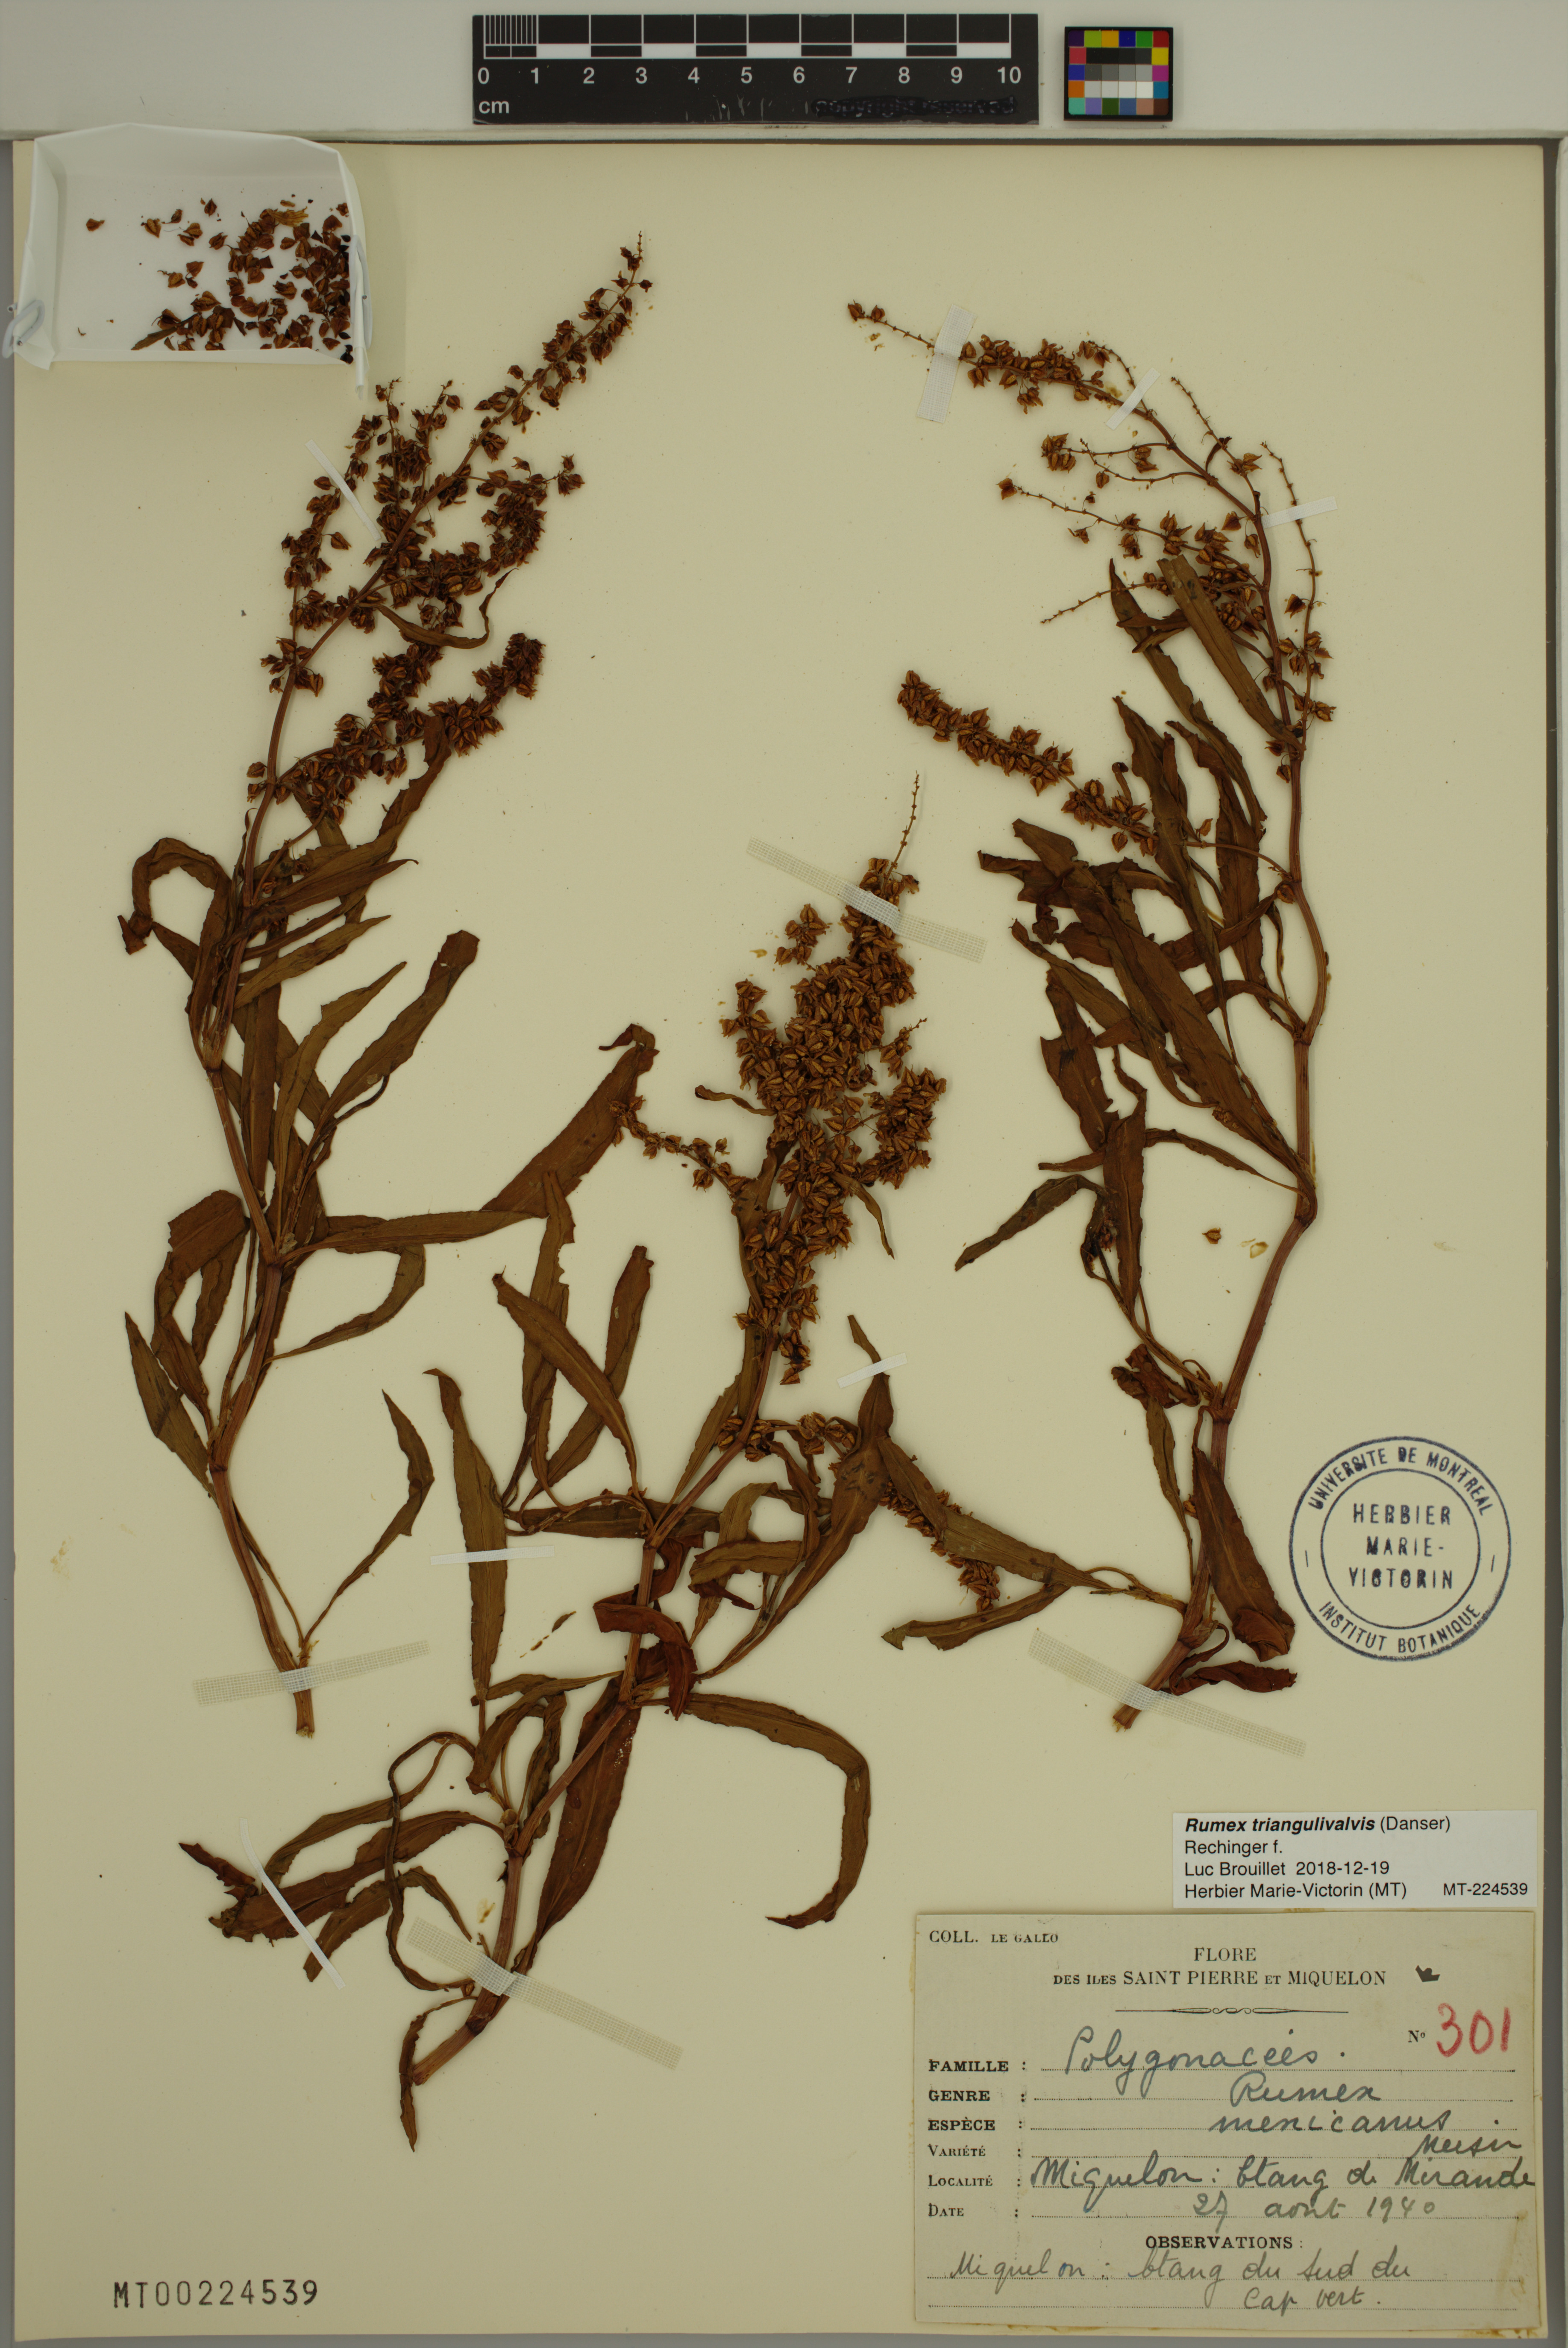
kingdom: Plantae
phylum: Tracheophyta
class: Magnoliopsida
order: Caryophyllales
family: Polygonaceae
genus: Rumex
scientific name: Rumex triangulivalvis
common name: Triangular-valve dock
